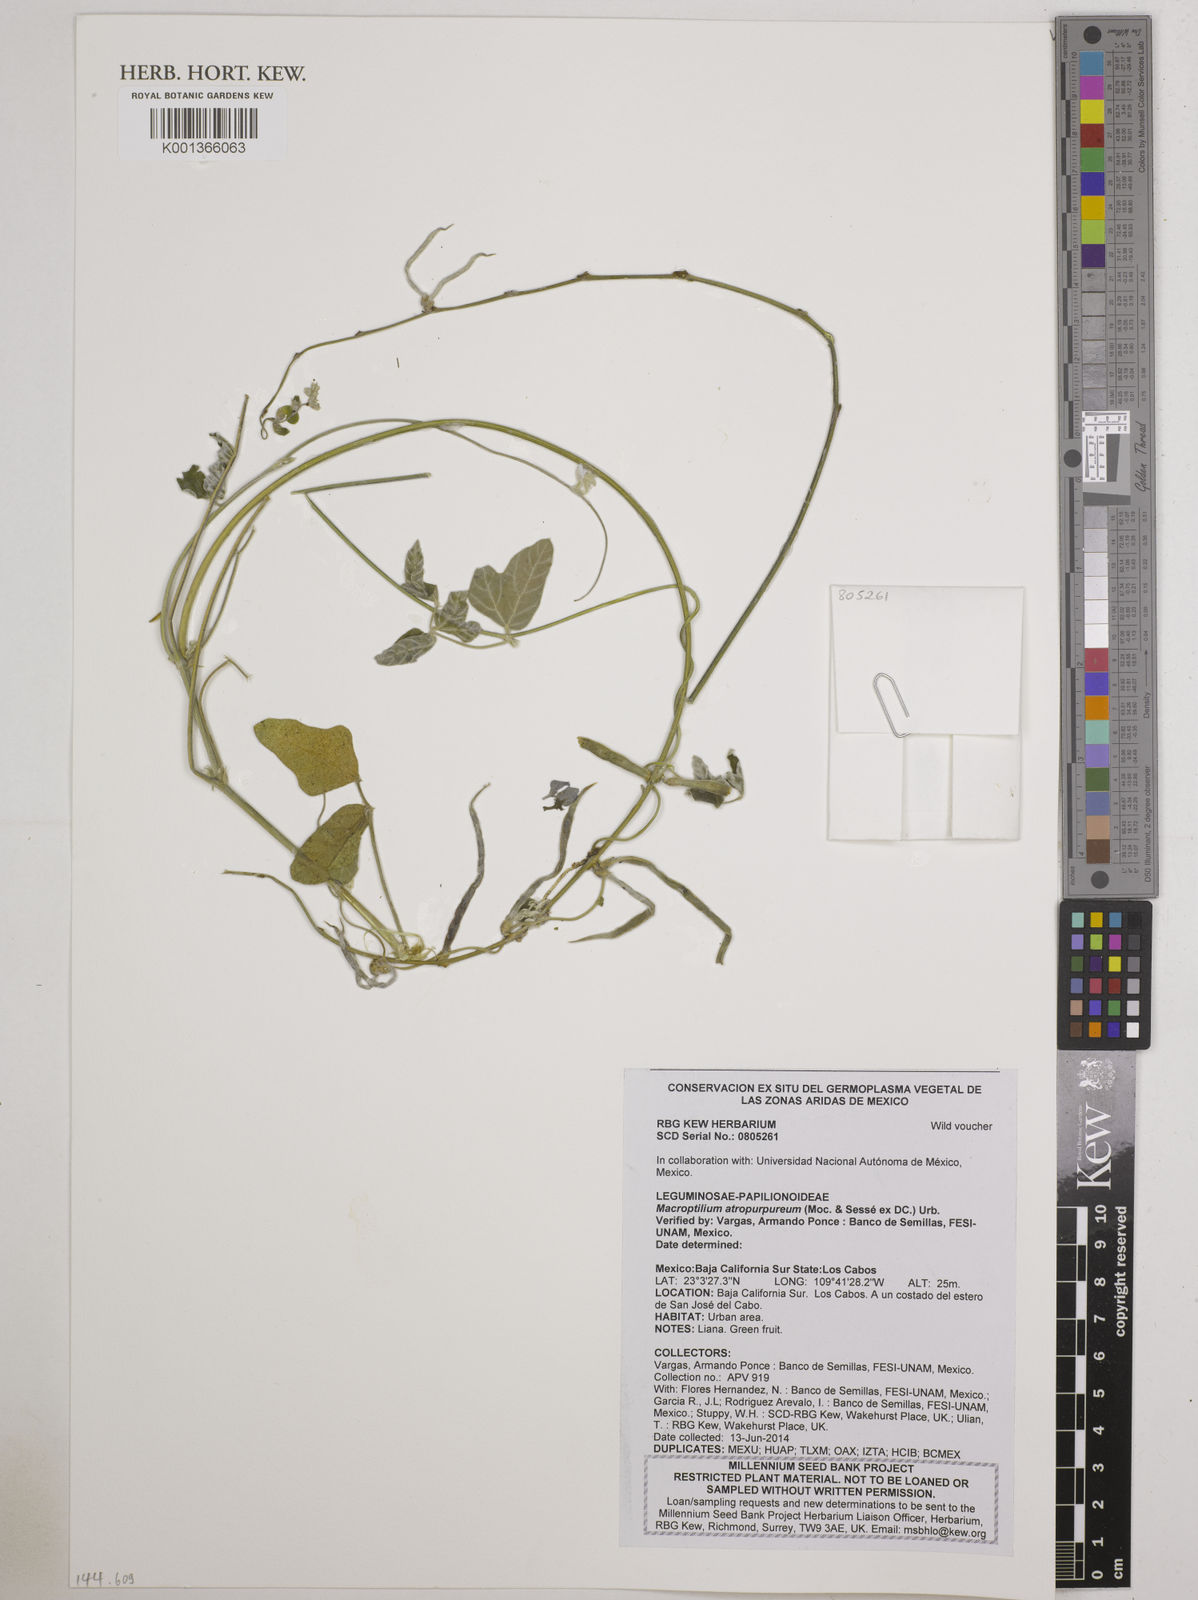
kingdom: Plantae
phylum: Tracheophyta
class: Magnoliopsida
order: Fabales
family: Fabaceae
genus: Macroptilium
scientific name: Macroptilium atropurpureum
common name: Purple bushbean
